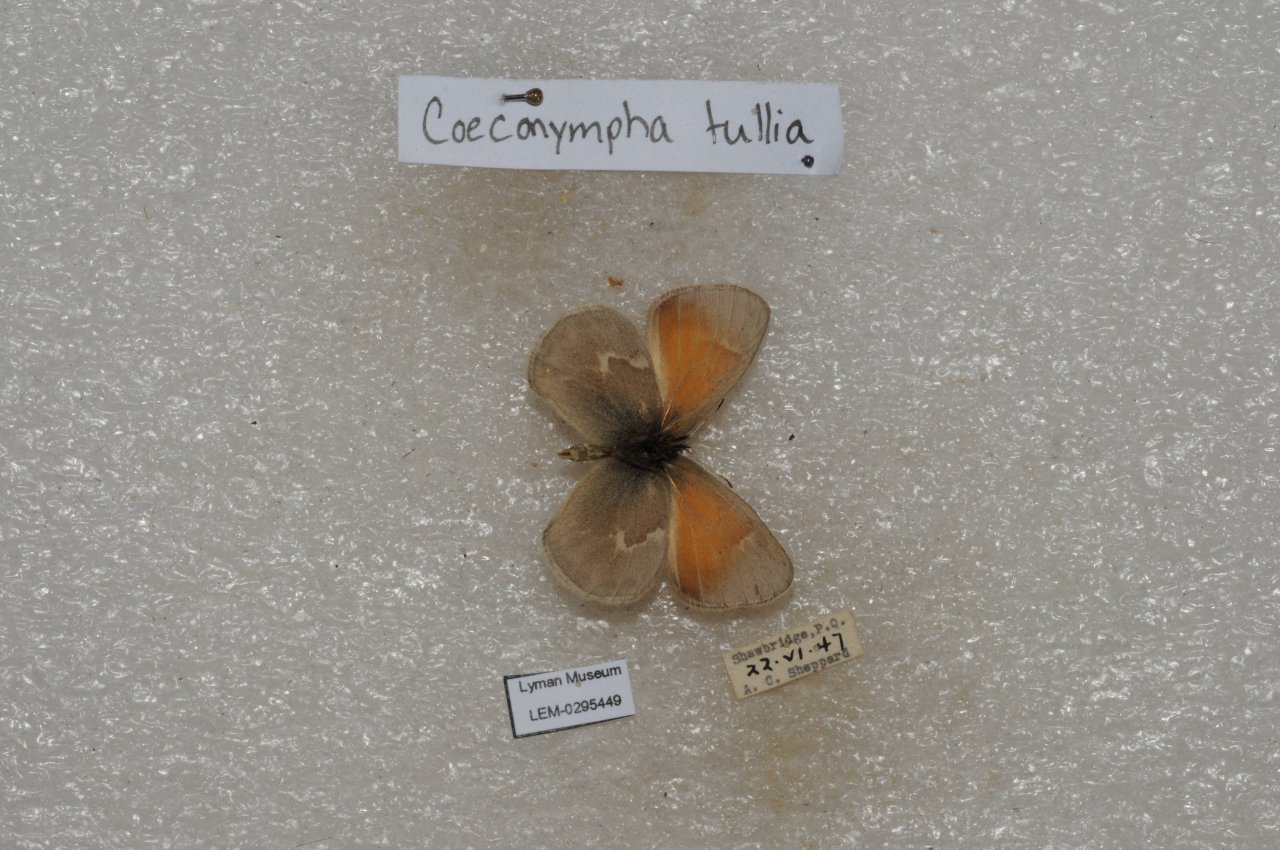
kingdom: Animalia
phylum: Arthropoda
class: Insecta
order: Lepidoptera
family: Nymphalidae
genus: Coenonympha
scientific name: Coenonympha tullia
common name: Large Heath
